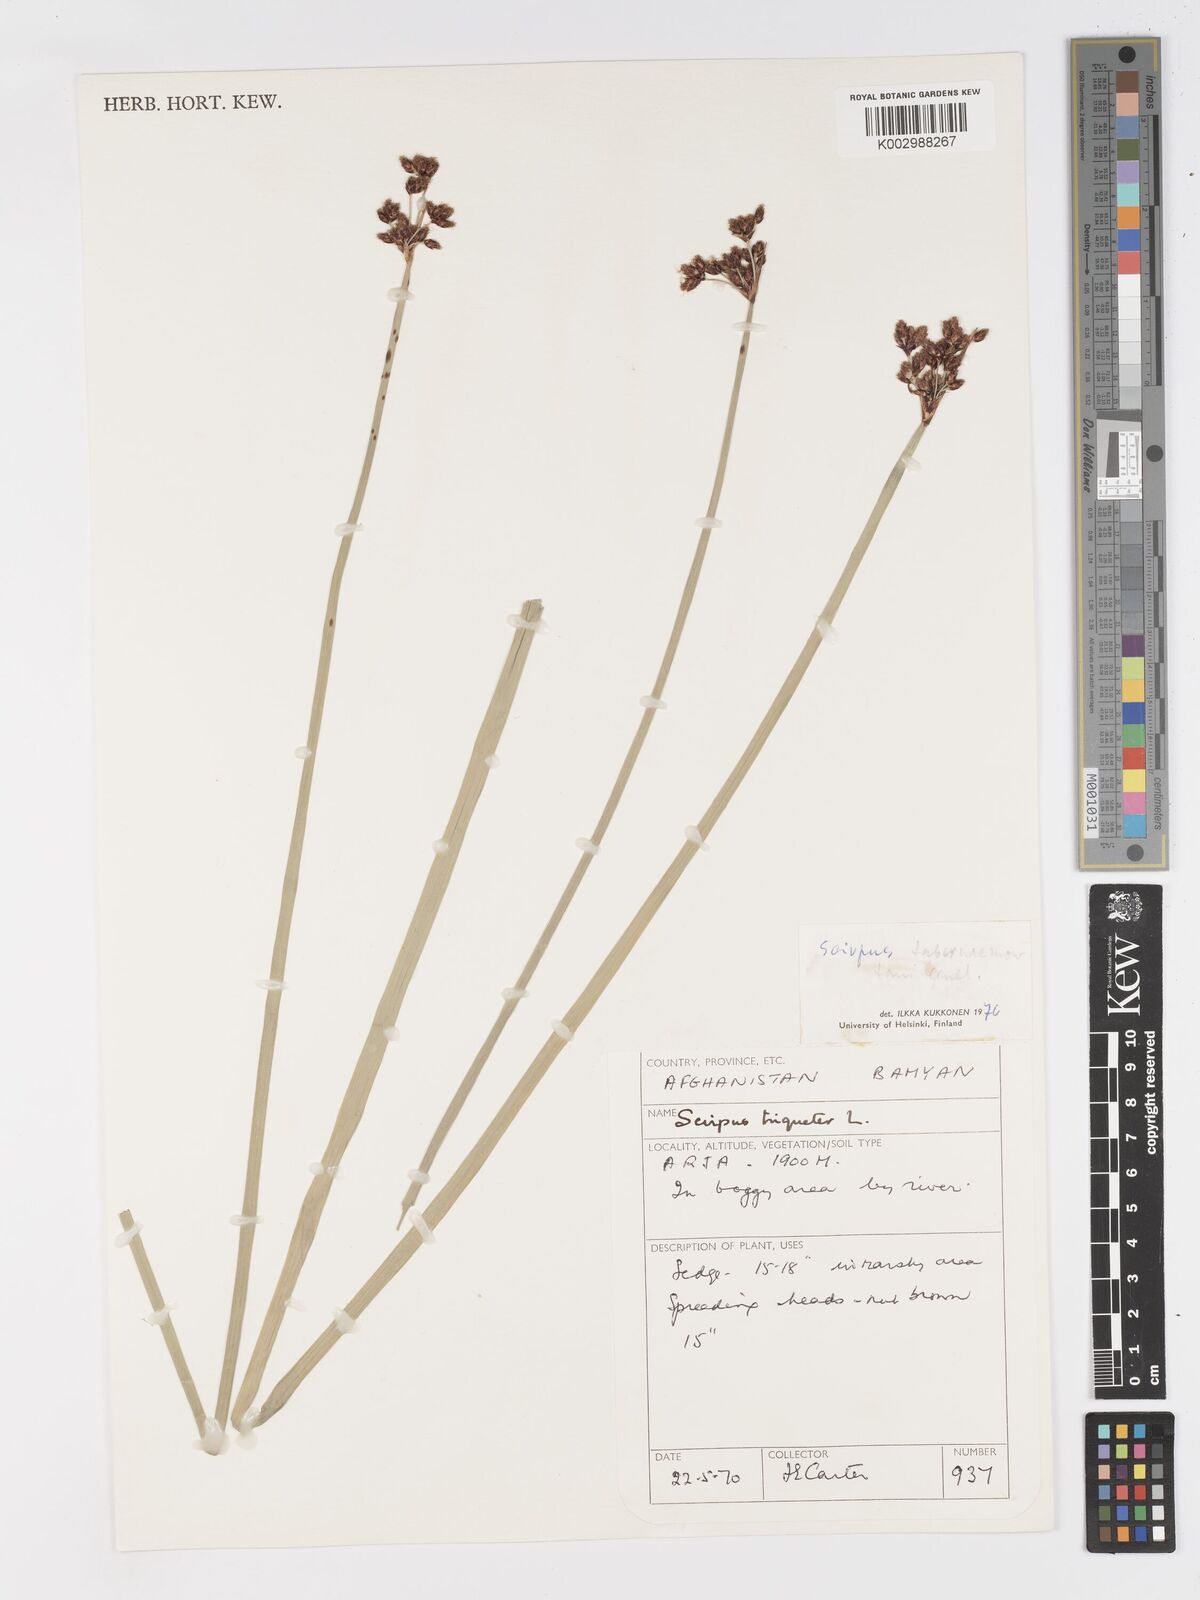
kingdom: Plantae
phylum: Tracheophyta
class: Liliopsida
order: Poales
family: Cyperaceae
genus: Schoenoplectus
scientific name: Schoenoplectus tabernaemontani
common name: Grey club-rush
